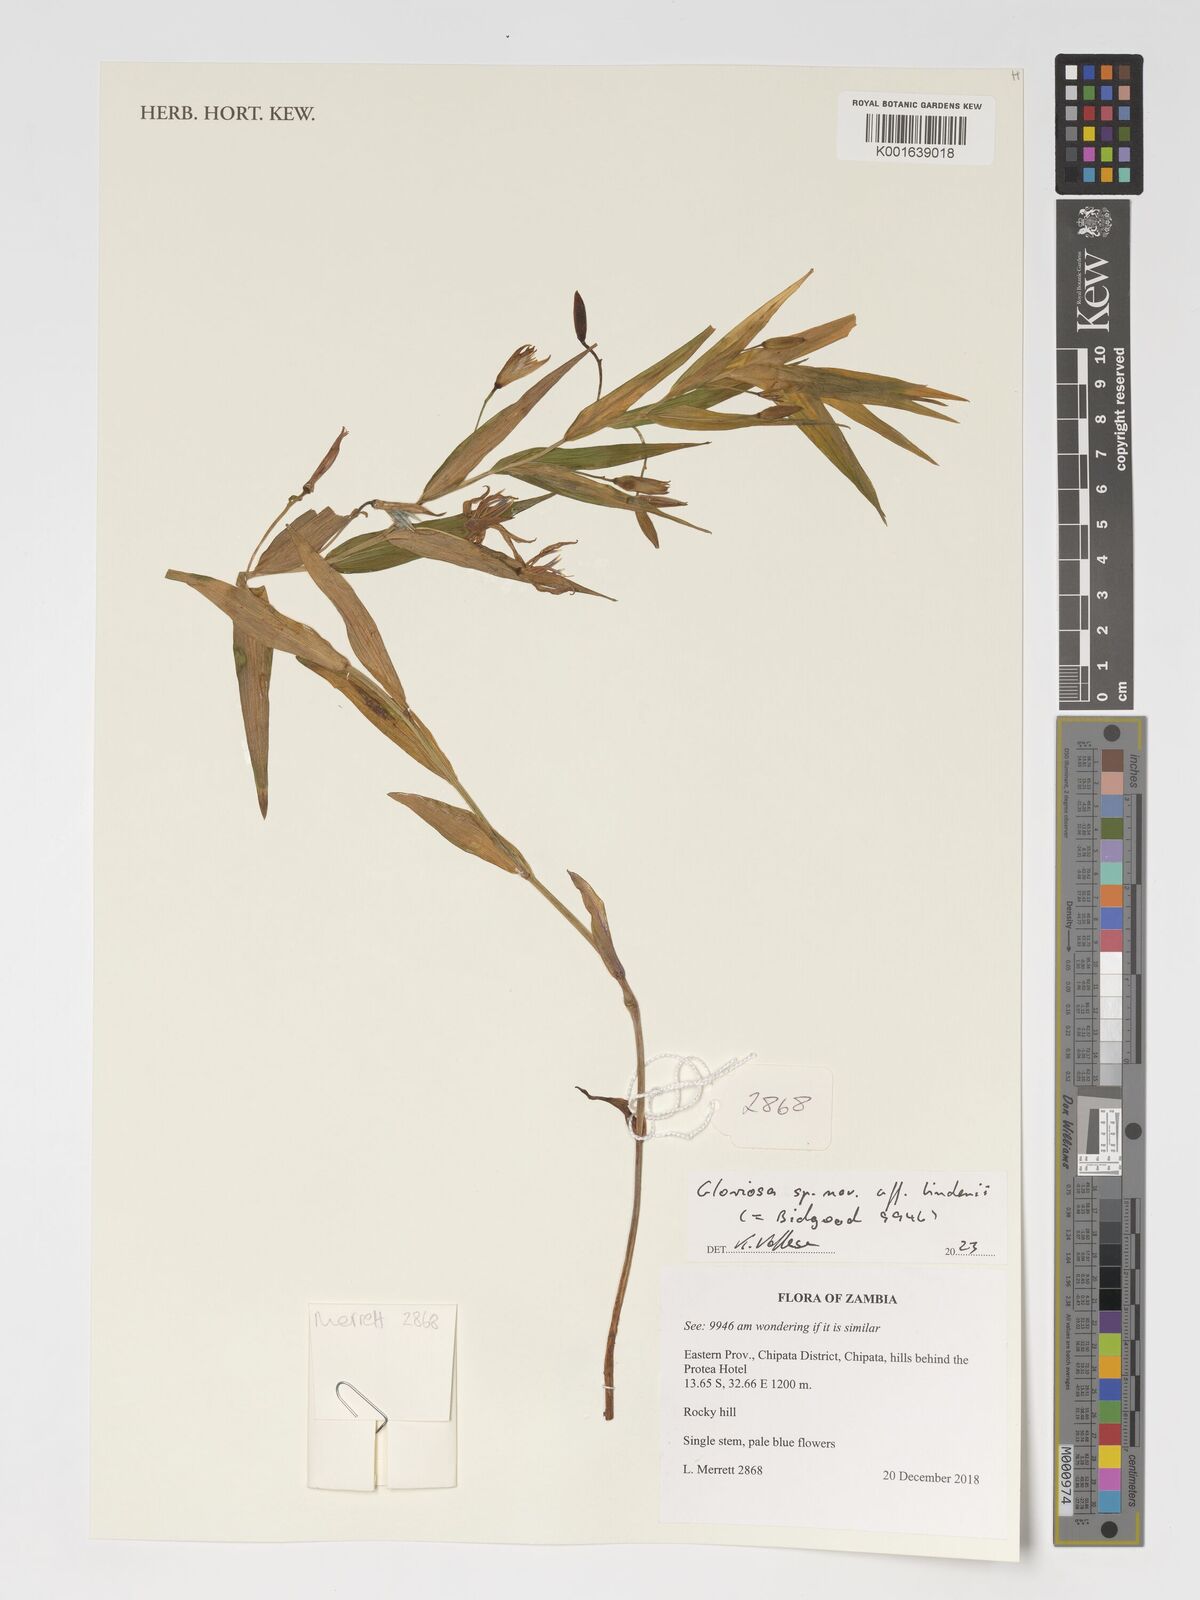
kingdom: Plantae
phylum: Tracheophyta
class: Liliopsida
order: Liliales
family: Colchicaceae
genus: Gloriosa
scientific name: Gloriosa lindenii
